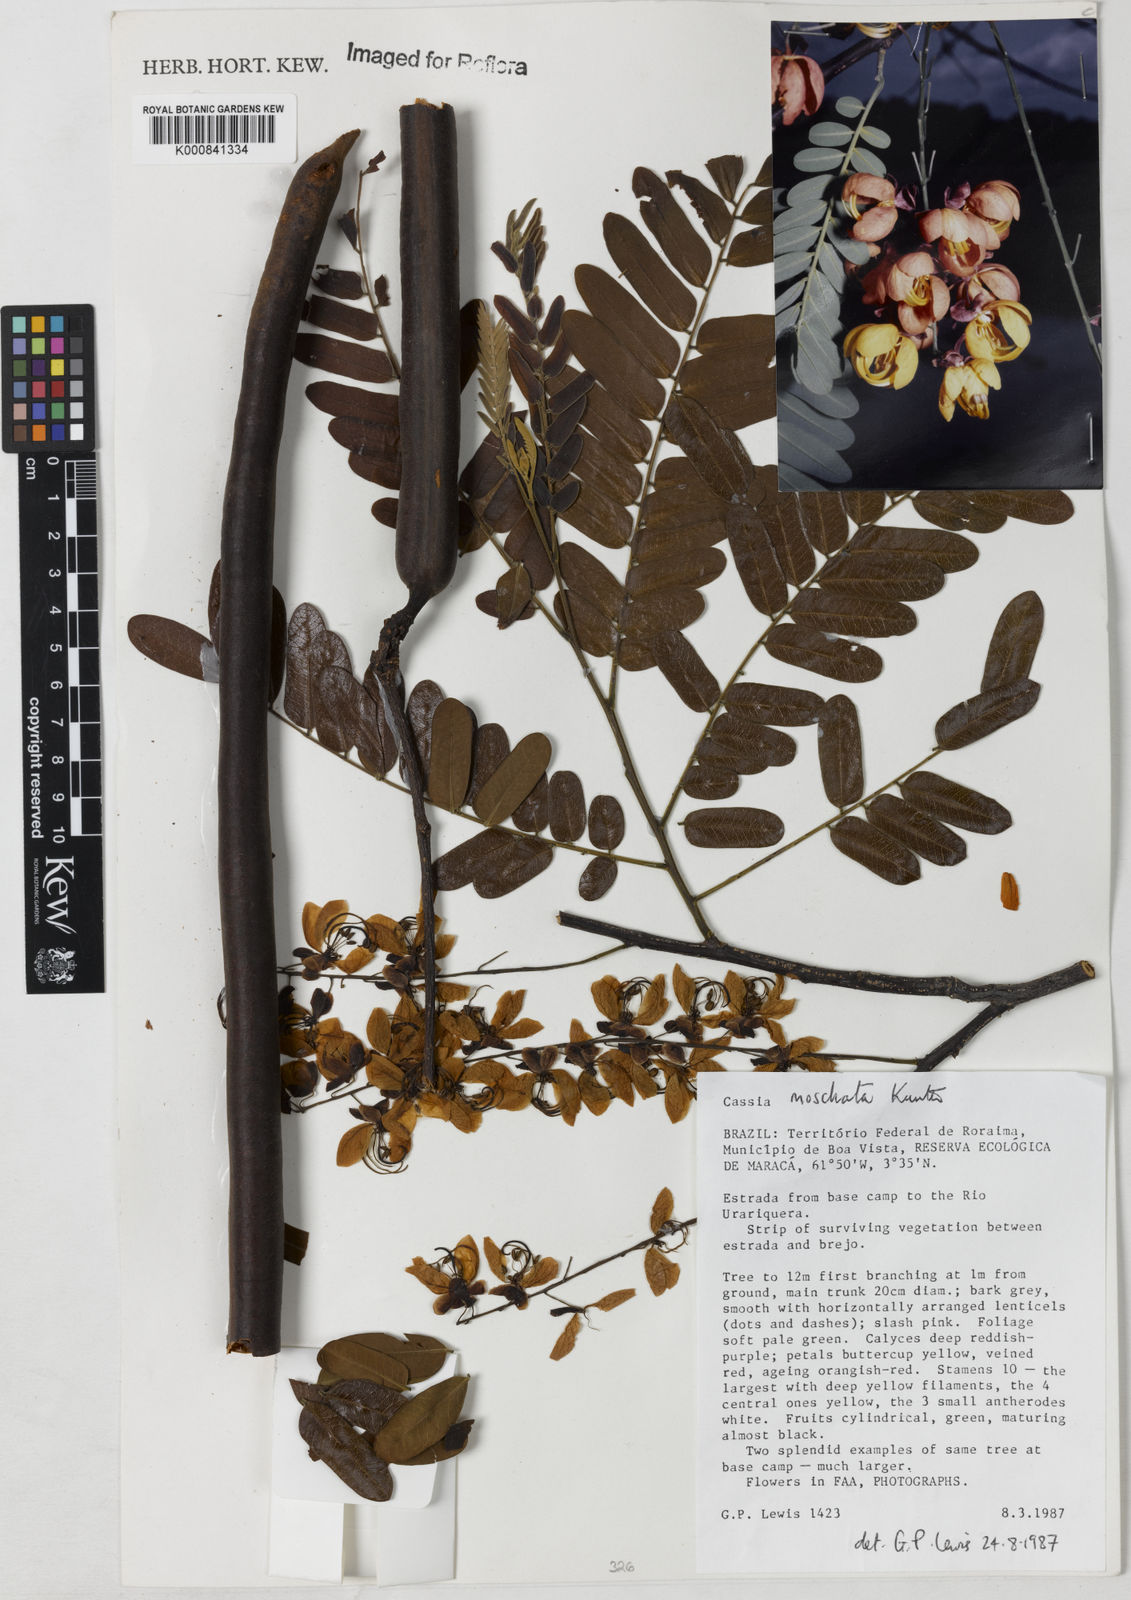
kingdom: Plantae
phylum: Tracheophyta
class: Magnoliopsida
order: Fabales
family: Fabaceae
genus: Cassia
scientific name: Cassia moschata
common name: Bronze shower tree
